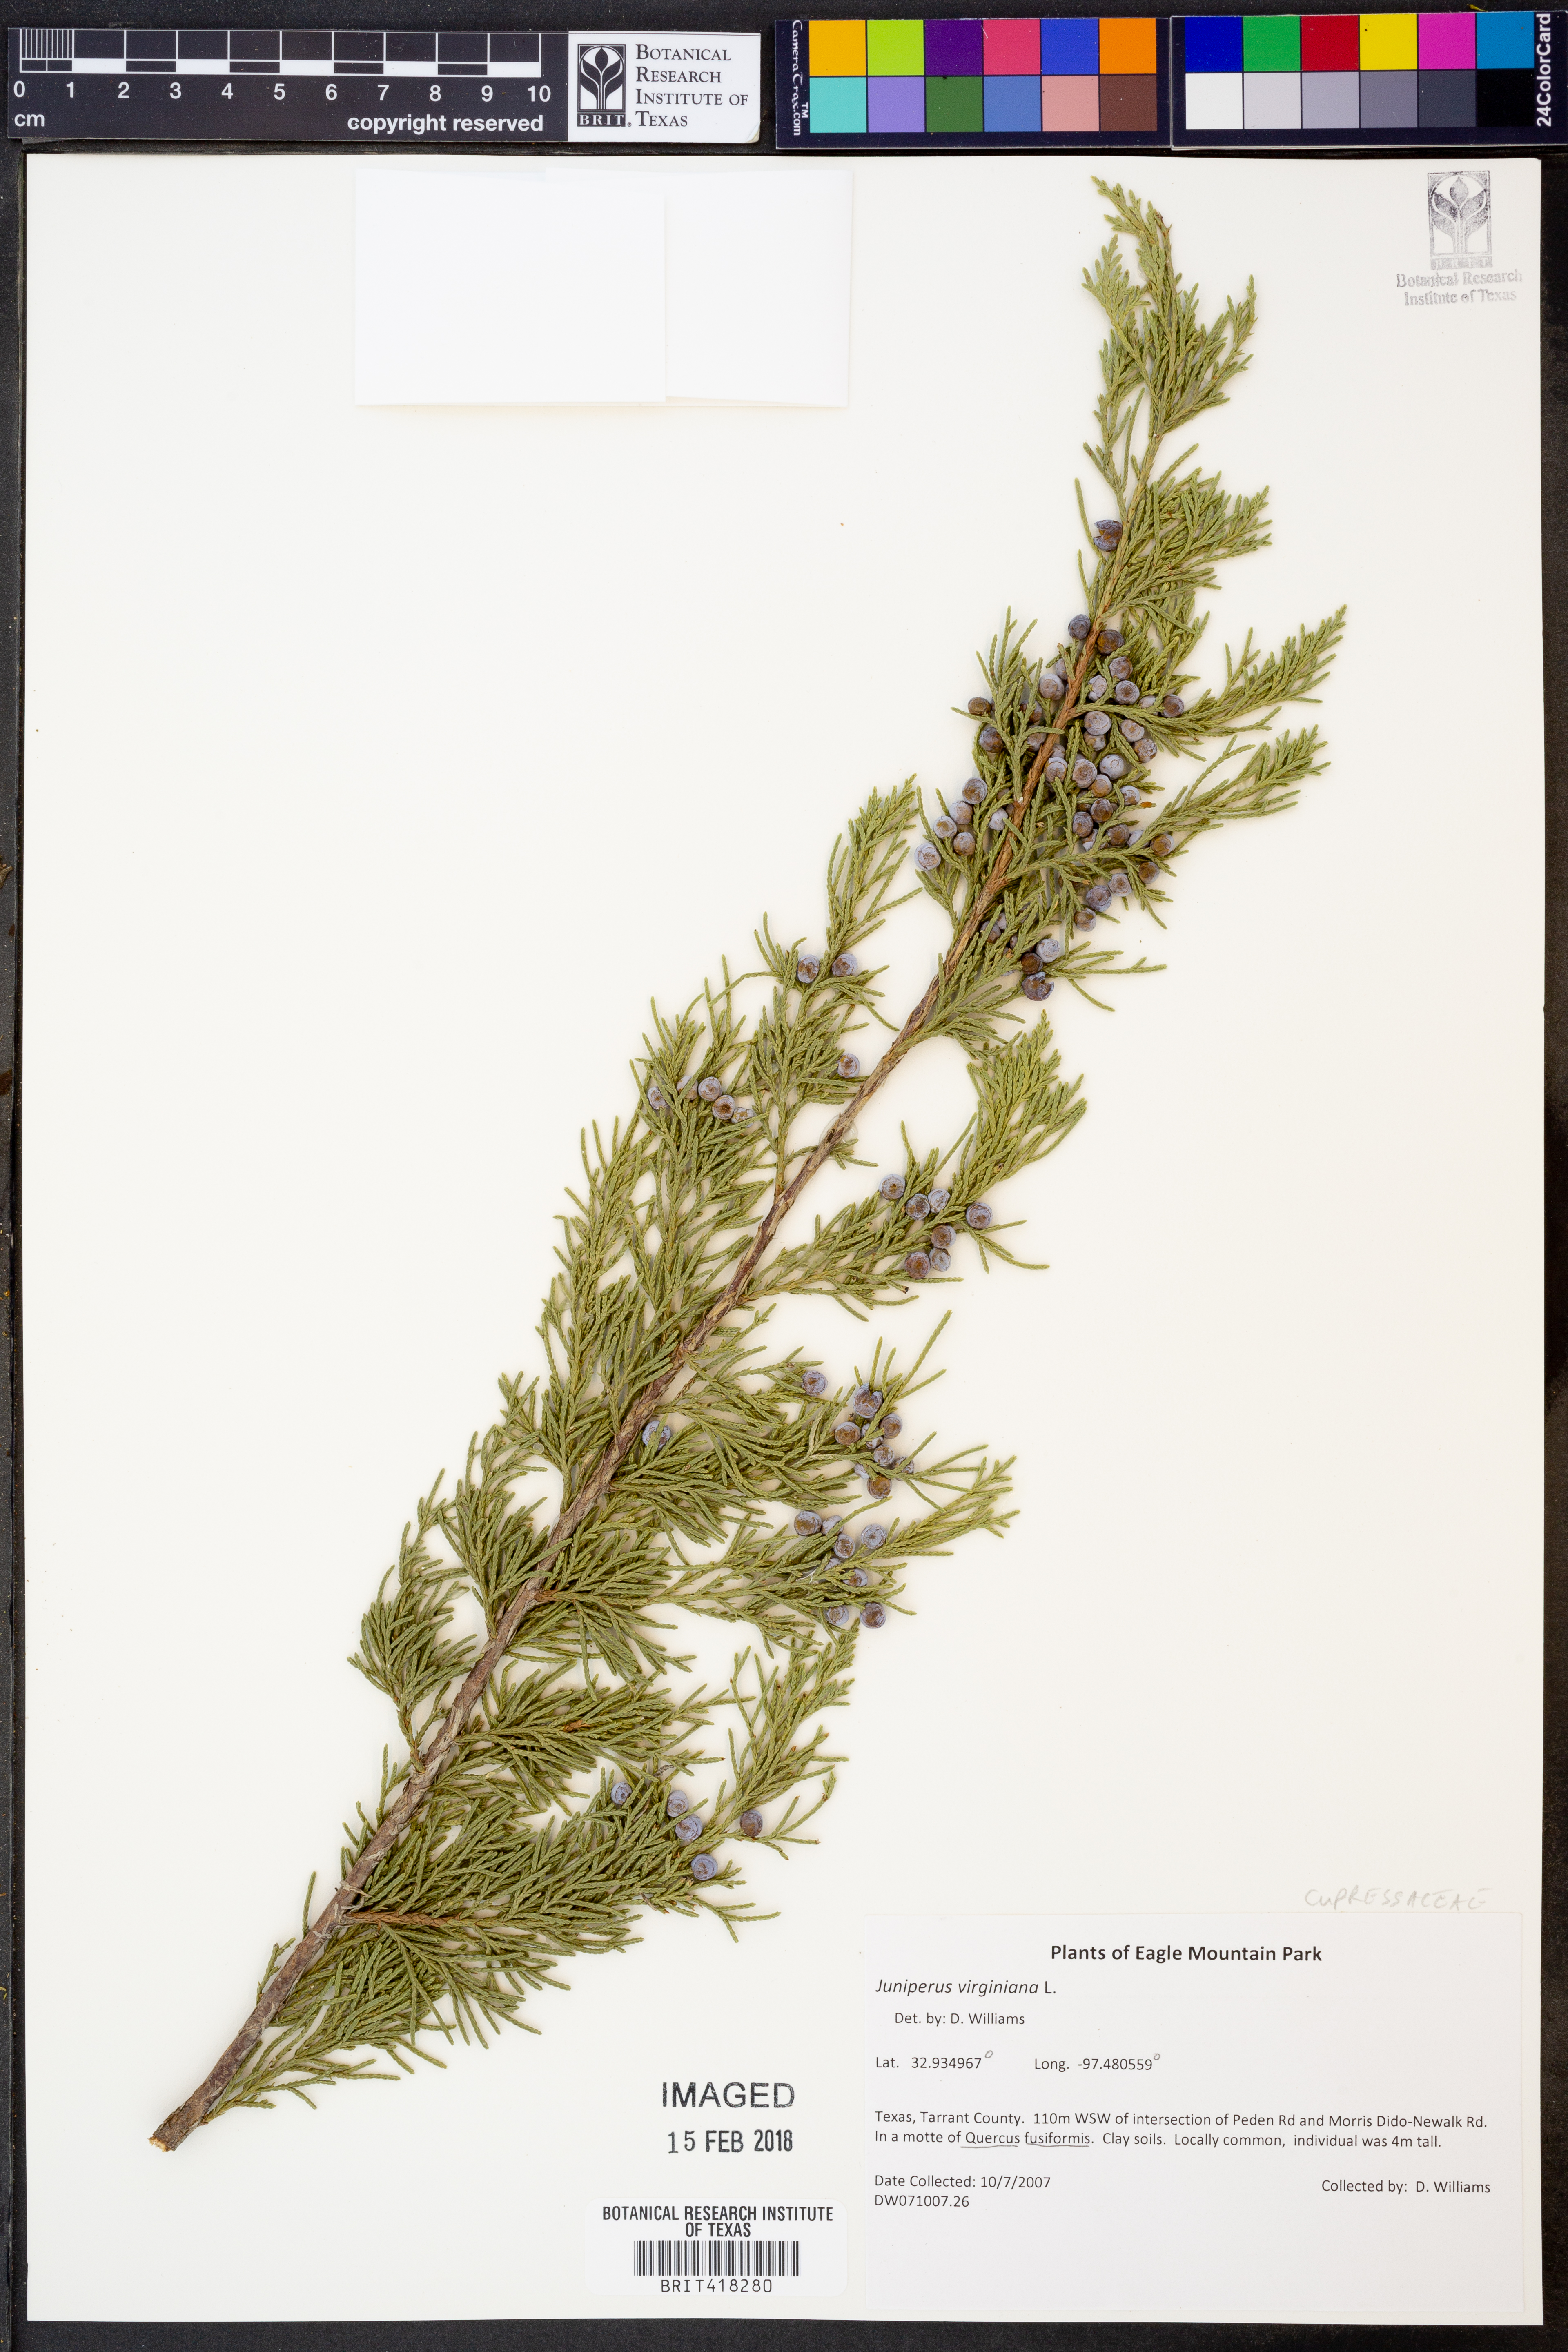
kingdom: Plantae
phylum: Tracheophyta
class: Pinopsida
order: Pinales
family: Cupressaceae
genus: Juniperus
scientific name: Juniperus virginiana
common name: Red juniper
